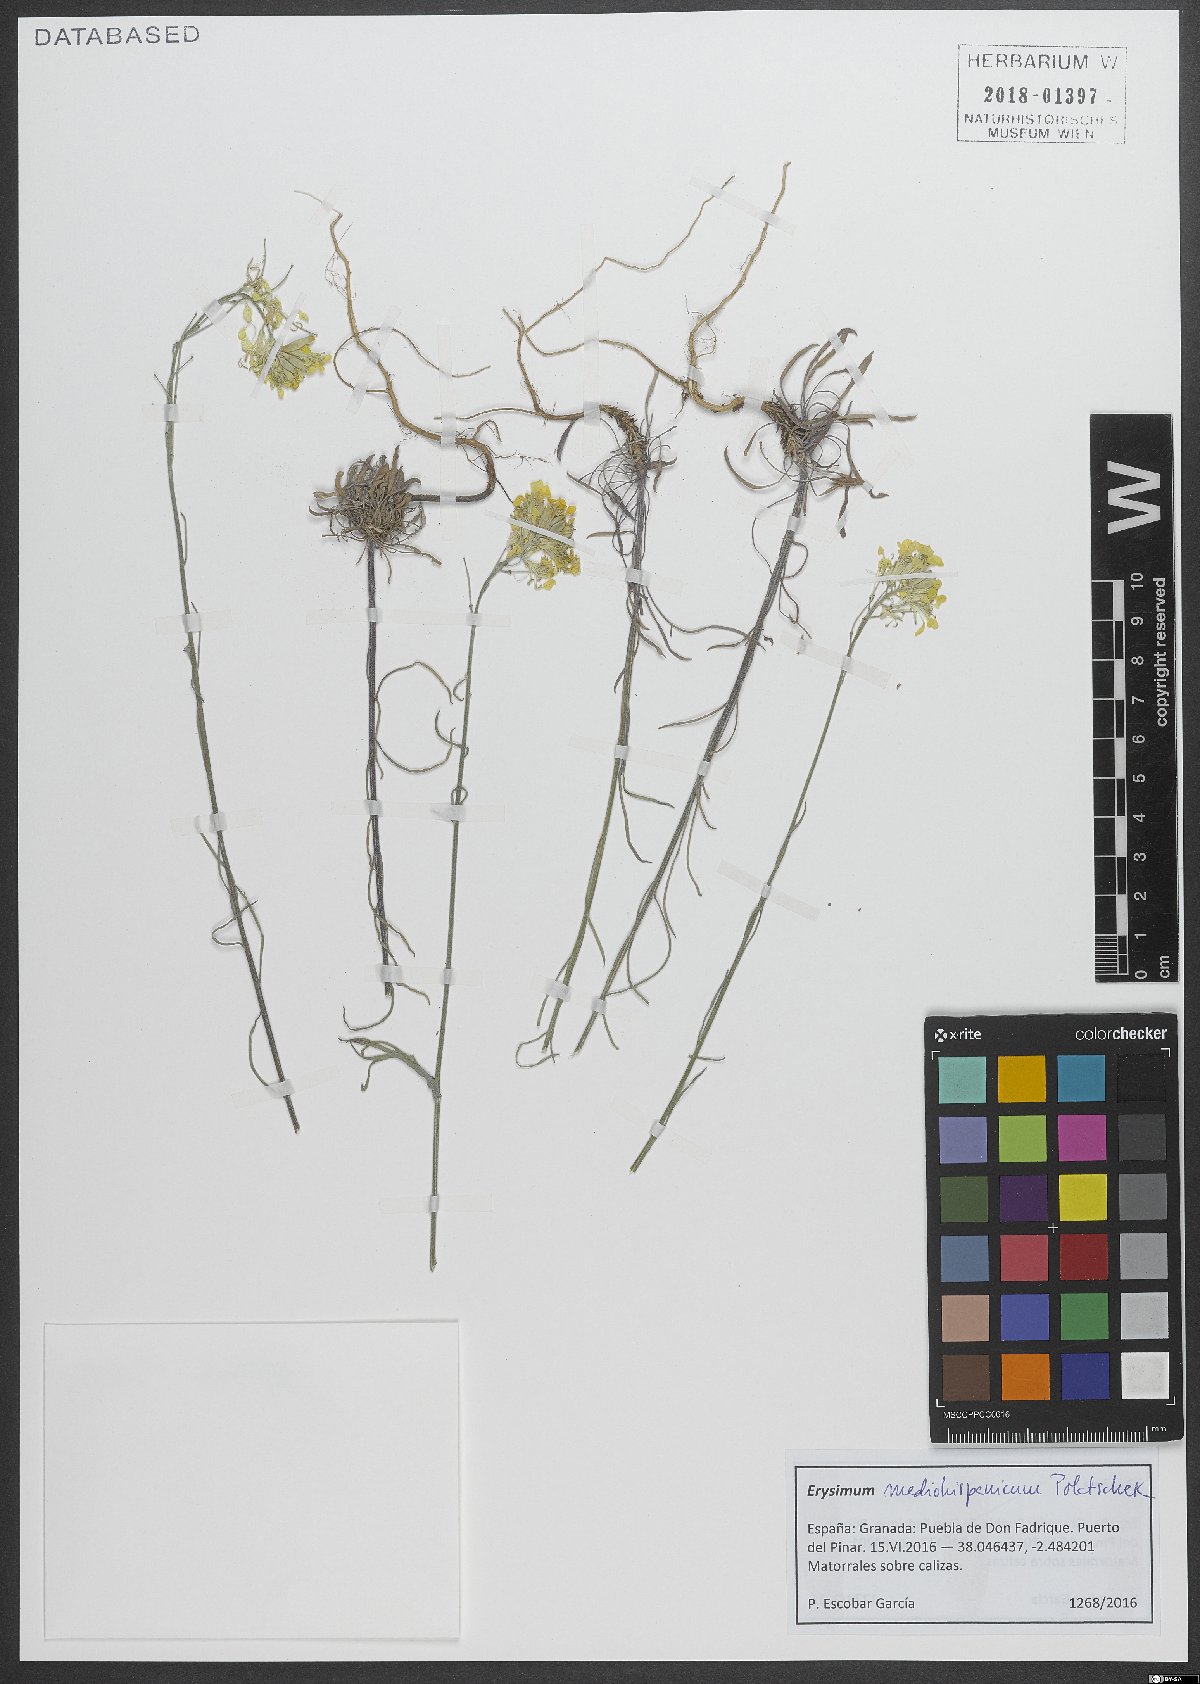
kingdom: Plantae
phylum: Tracheophyta
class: Magnoliopsida
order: Brassicales
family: Brassicaceae
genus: Erysimum
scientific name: Erysimum nevadense
